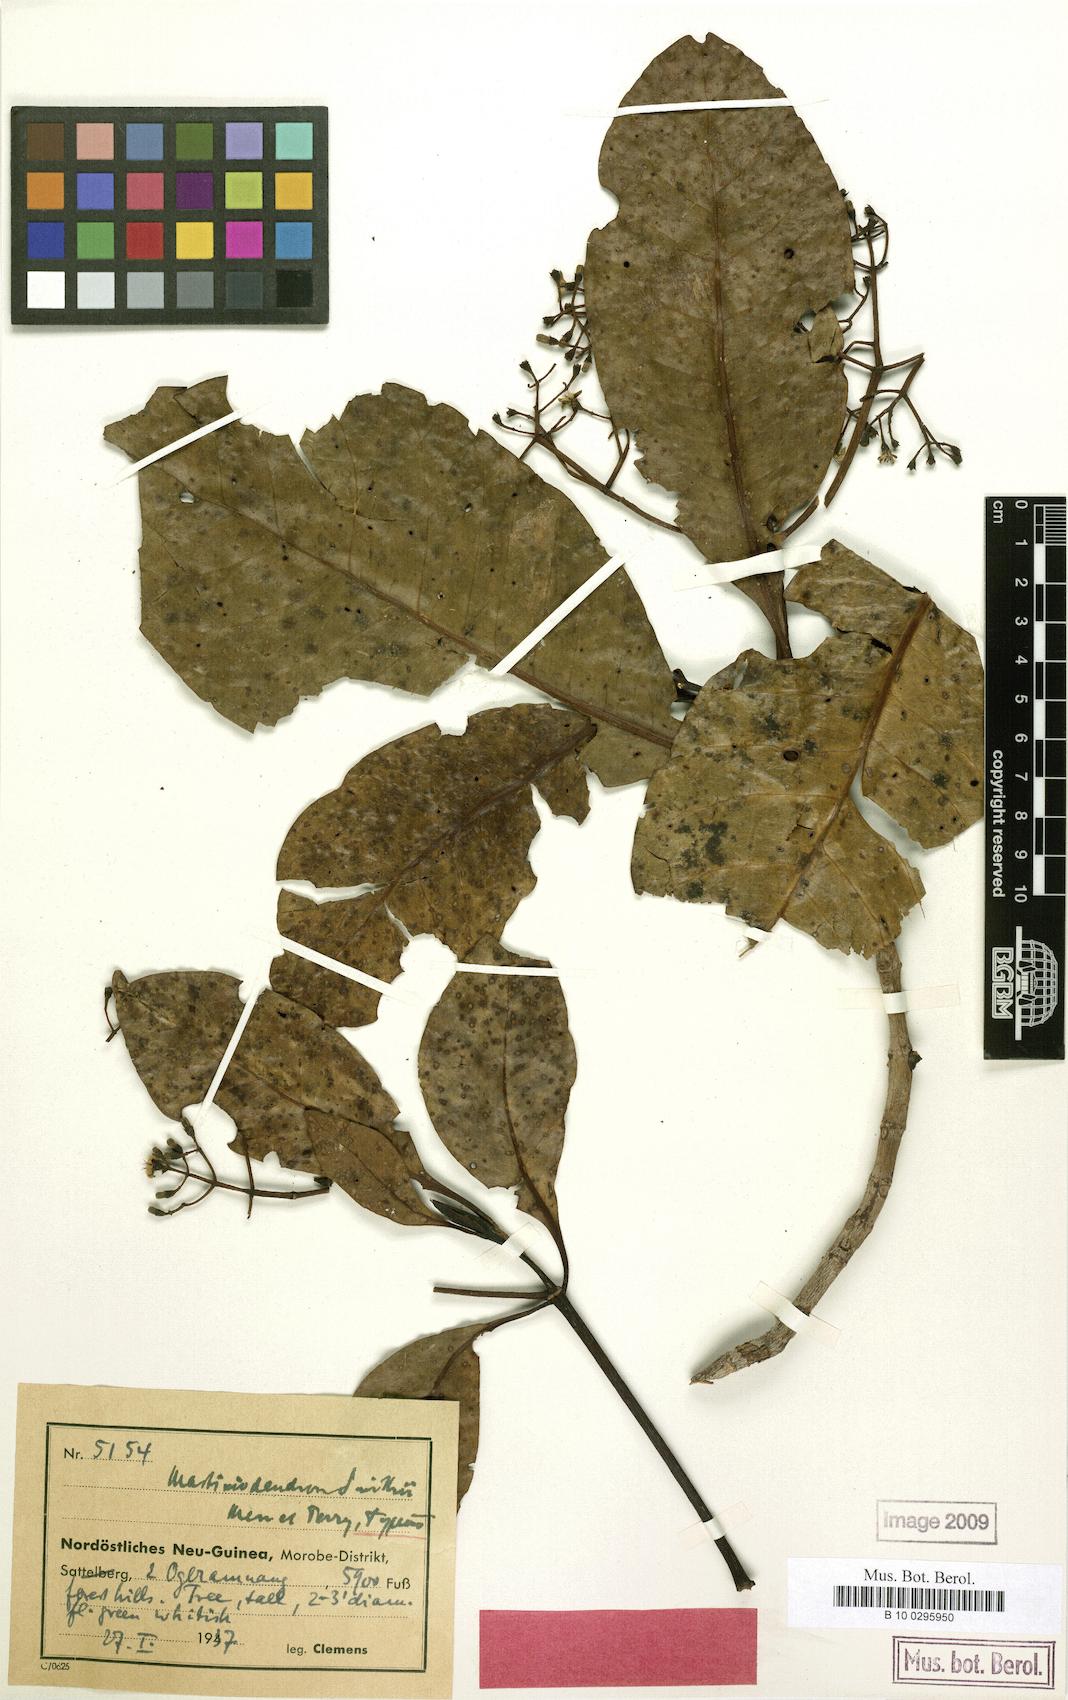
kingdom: Plantae
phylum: Tracheophyta
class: Magnoliopsida
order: Gentianales
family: Rubiaceae
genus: Mastixiodendron
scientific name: Mastixiodendron smithii
